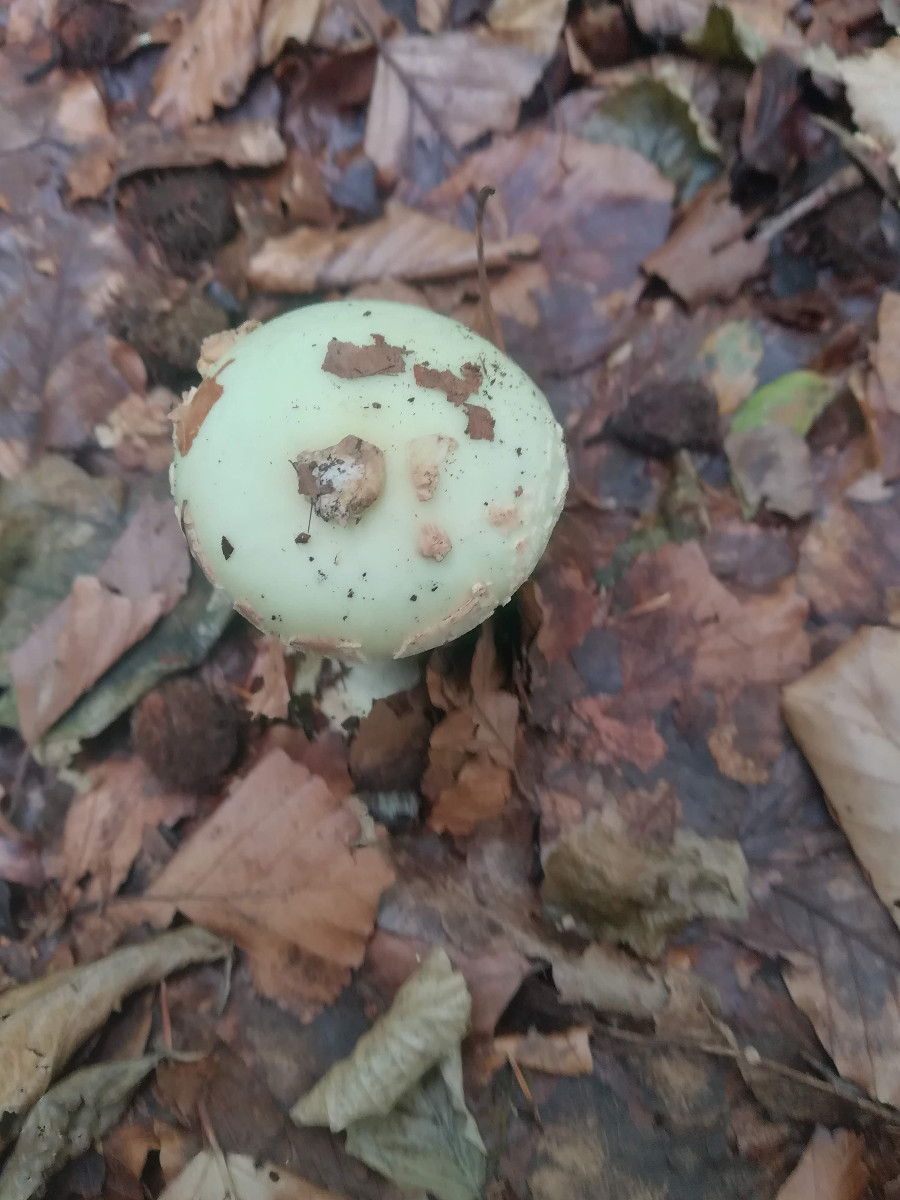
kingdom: Fungi
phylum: Basidiomycota
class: Agaricomycetes
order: Agaricales
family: Amanitaceae
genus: Amanita
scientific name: Amanita citrina
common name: kugleknoldet fluesvamp
